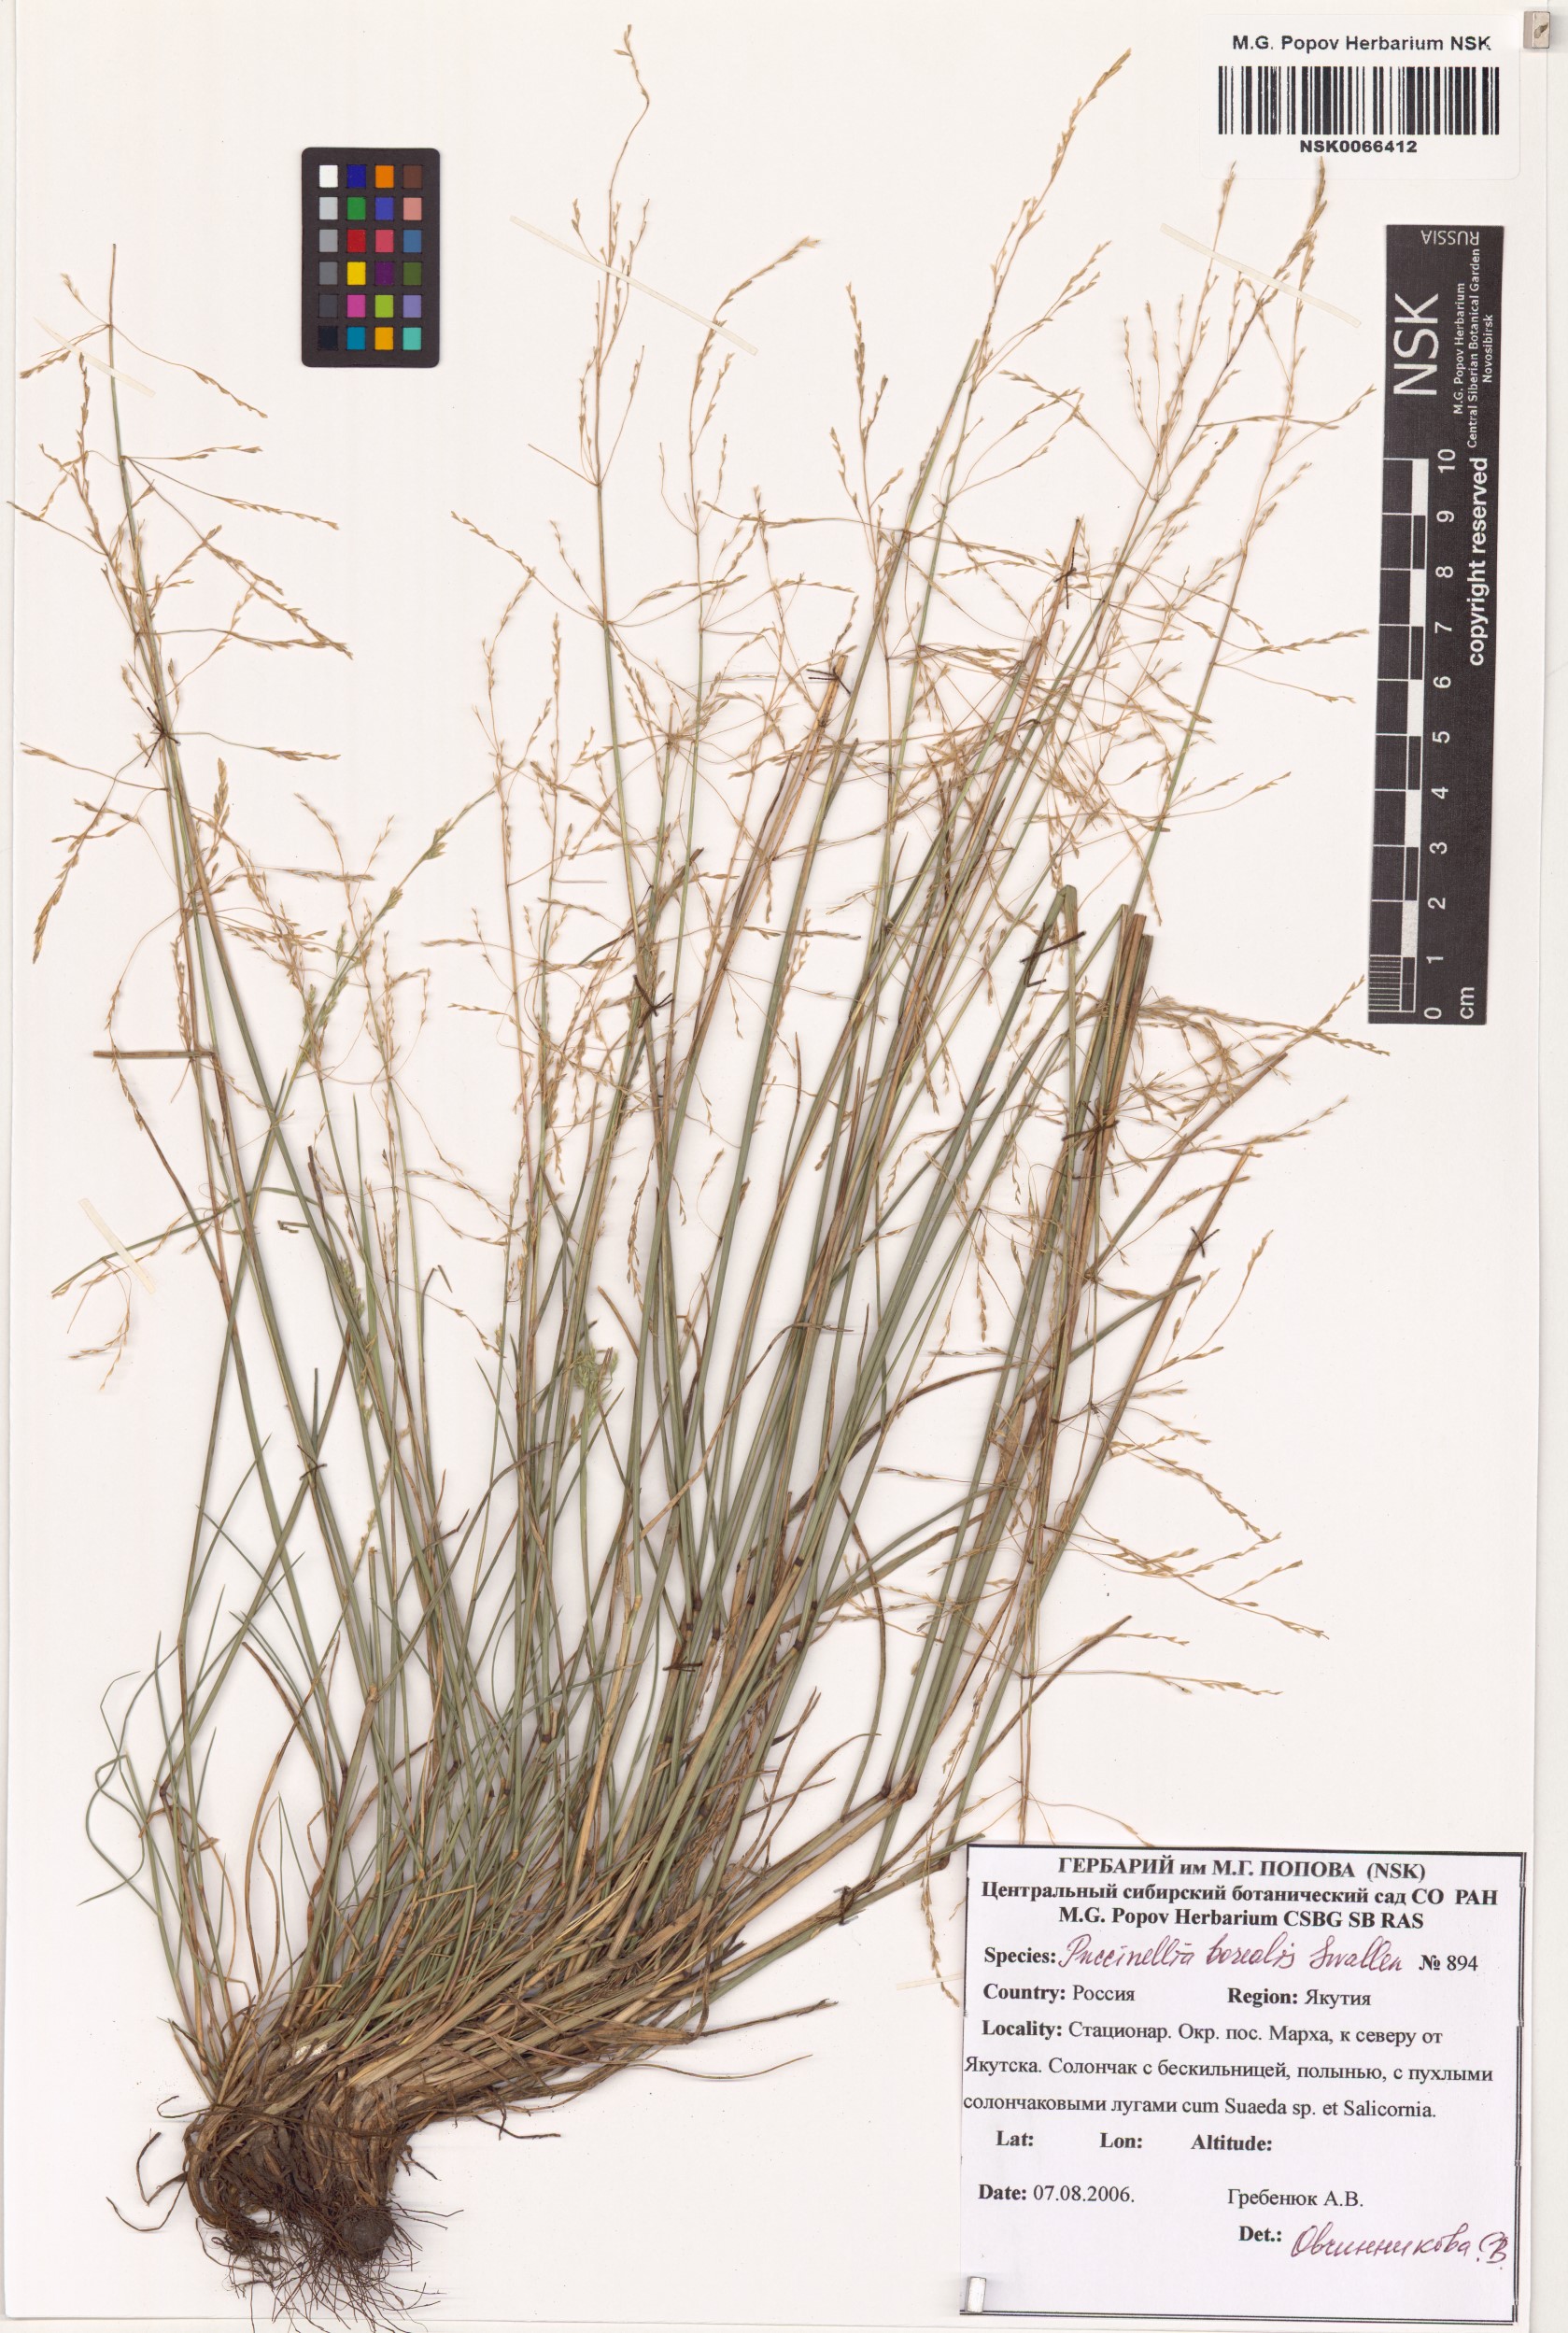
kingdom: Plantae
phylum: Tracheophyta
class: Liliopsida
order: Poales
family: Poaceae
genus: Puccinellia
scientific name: Puccinellia nuttalliana
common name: Nuttall's alkali grass
